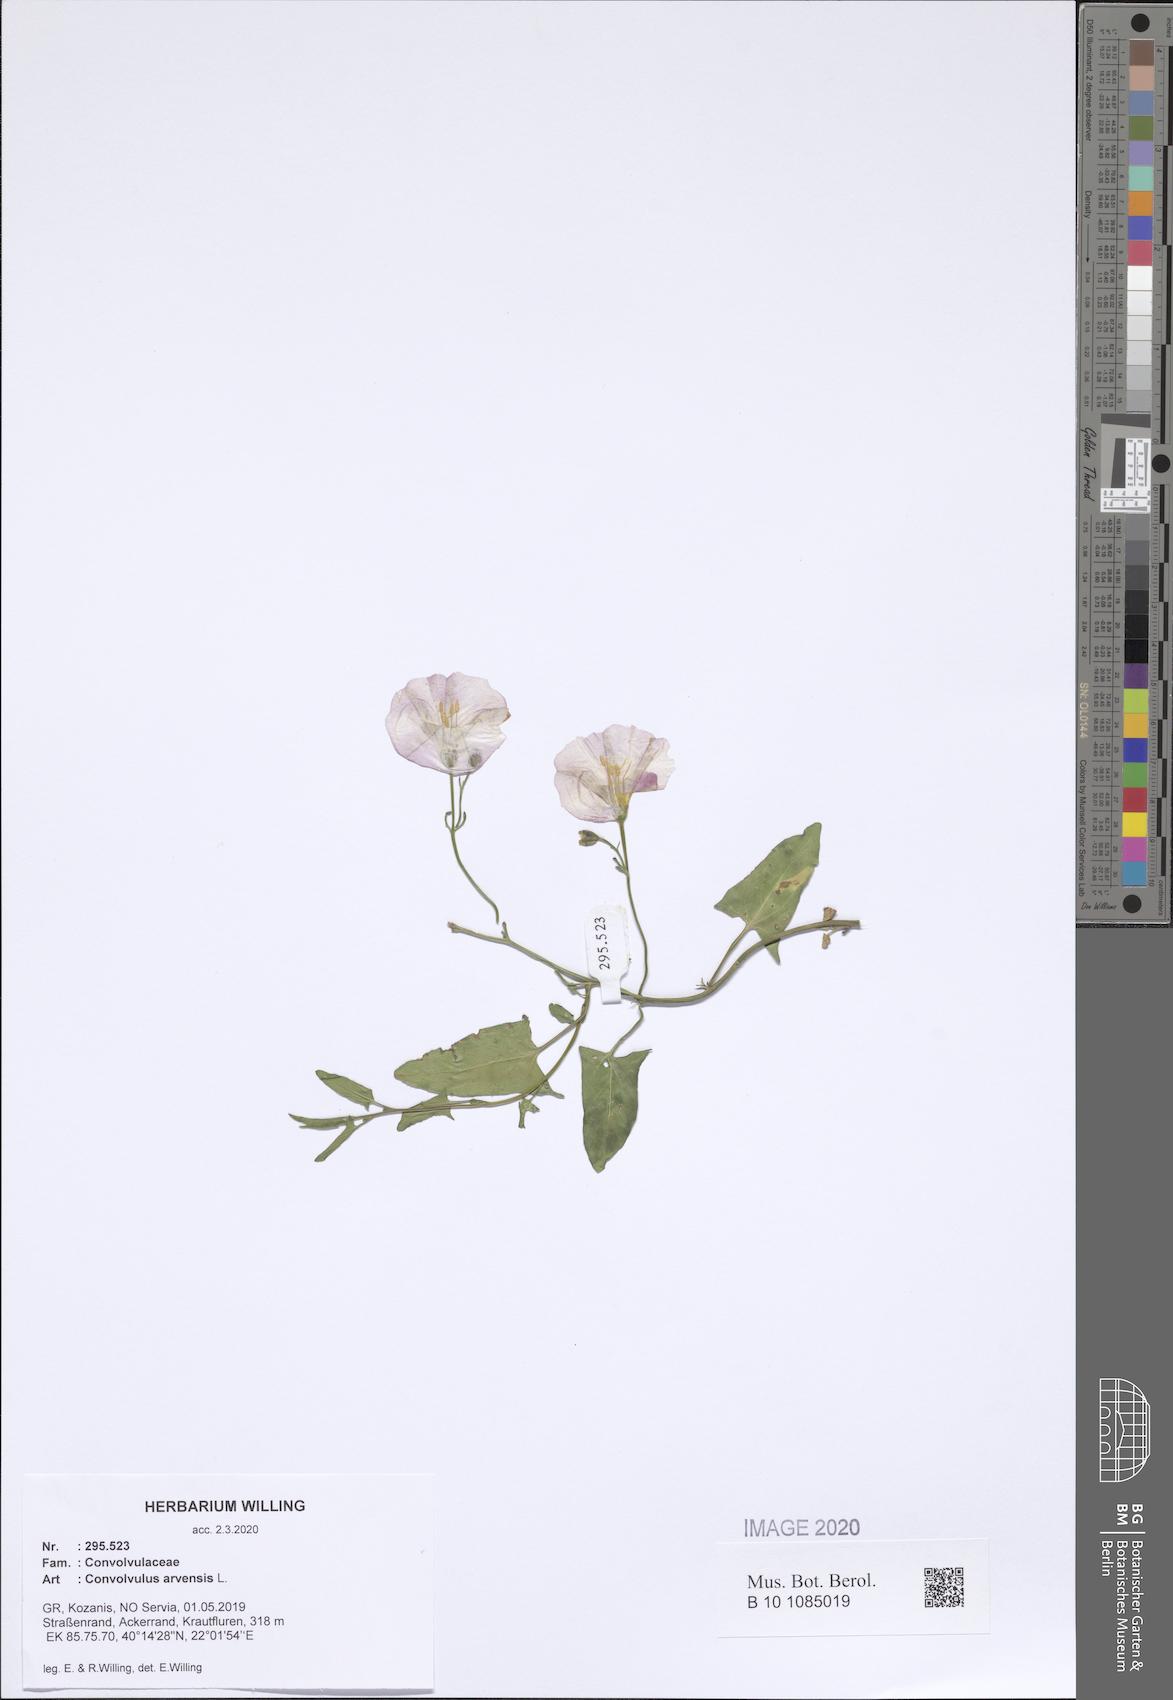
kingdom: Plantae
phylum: Tracheophyta
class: Magnoliopsida
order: Solanales
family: Convolvulaceae
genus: Convolvulus
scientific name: Convolvulus arvensis
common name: Field bindweed
